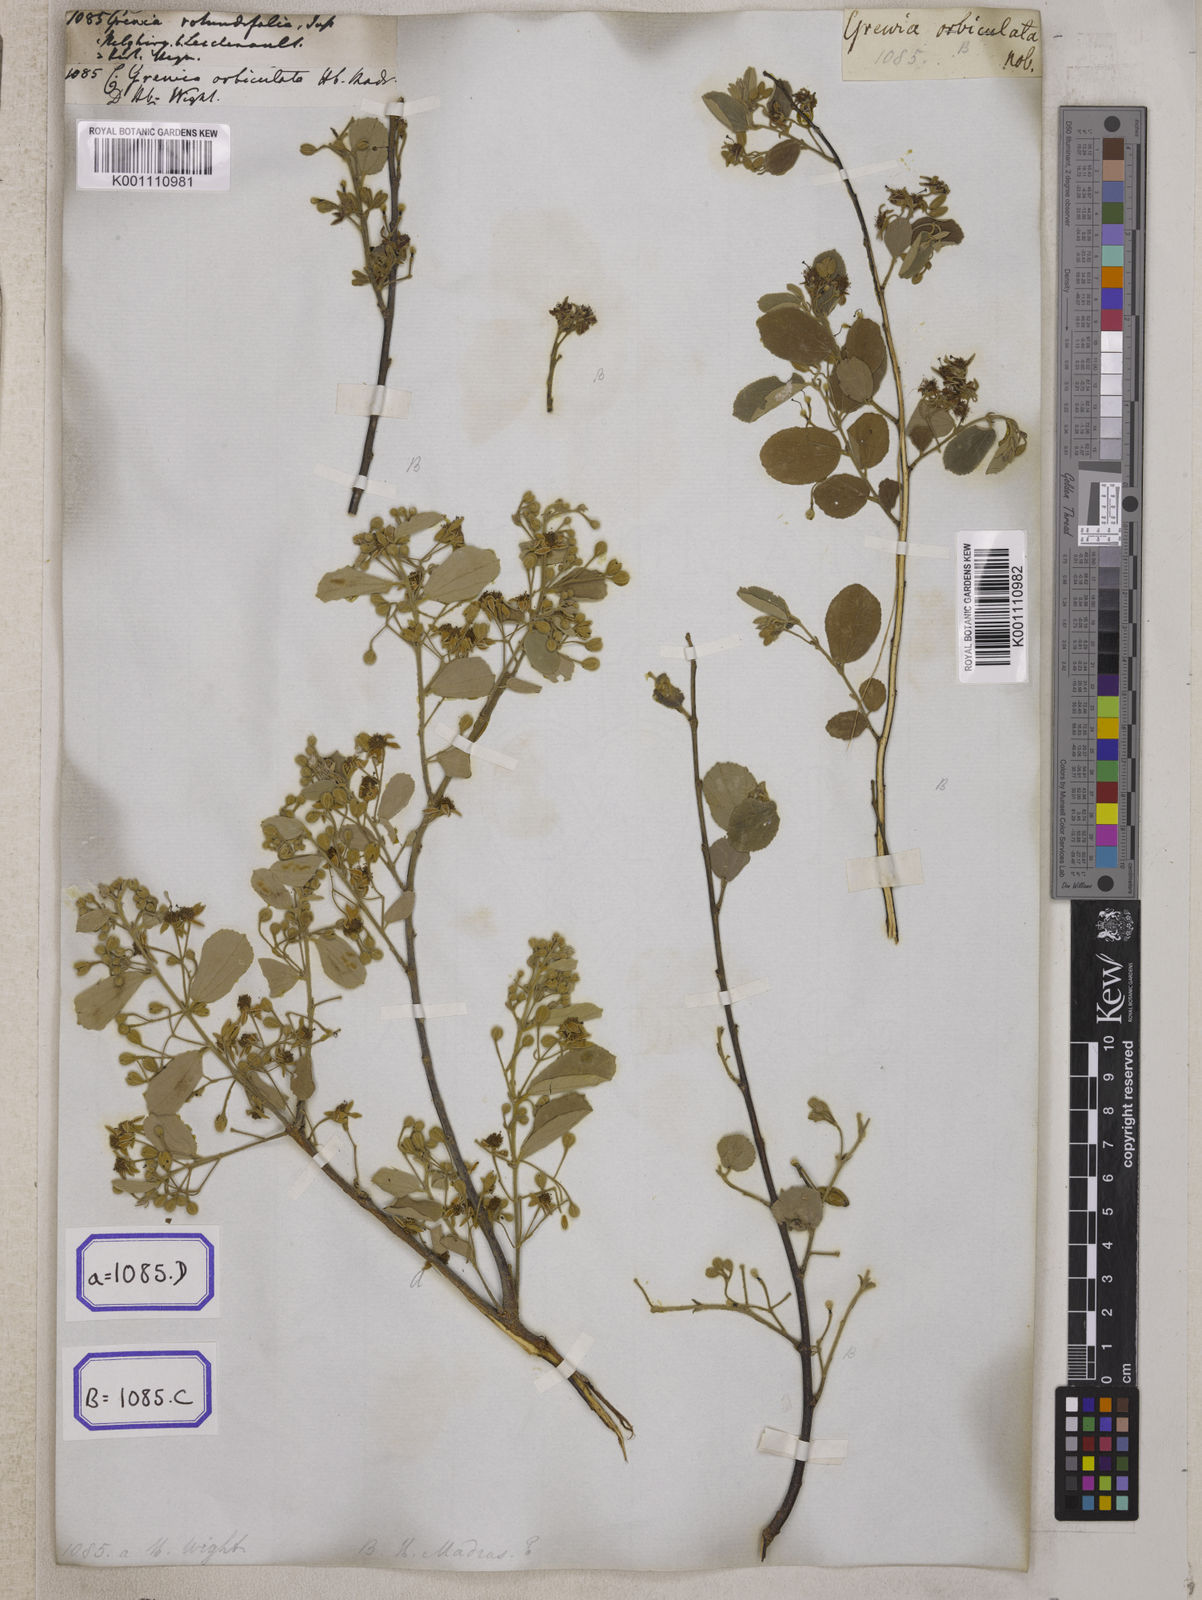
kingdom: Plantae
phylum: Tracheophyta
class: Magnoliopsida
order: Malvales
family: Malvaceae
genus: Grewia
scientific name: Grewia orbiculata
